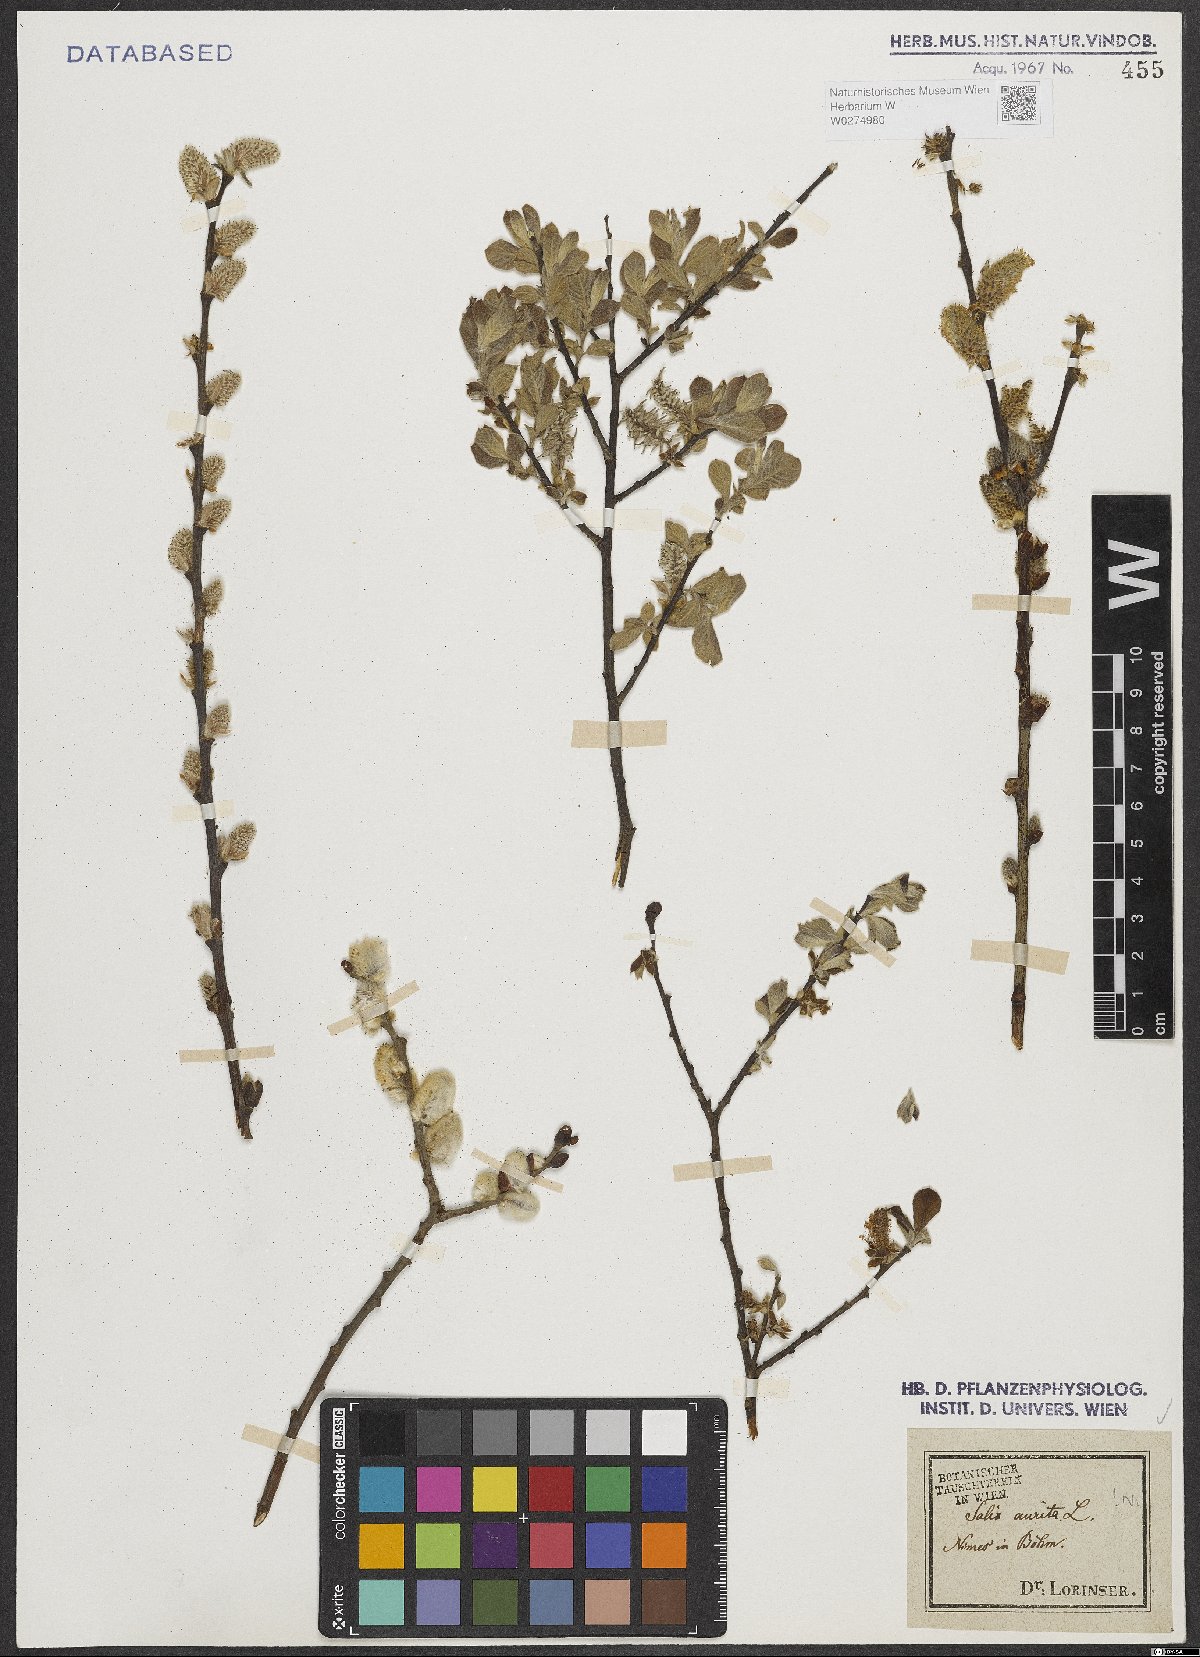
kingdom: Plantae
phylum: Tracheophyta
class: Magnoliopsida
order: Malpighiales
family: Salicaceae
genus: Salix
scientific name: Salix aurita
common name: Eared willow
